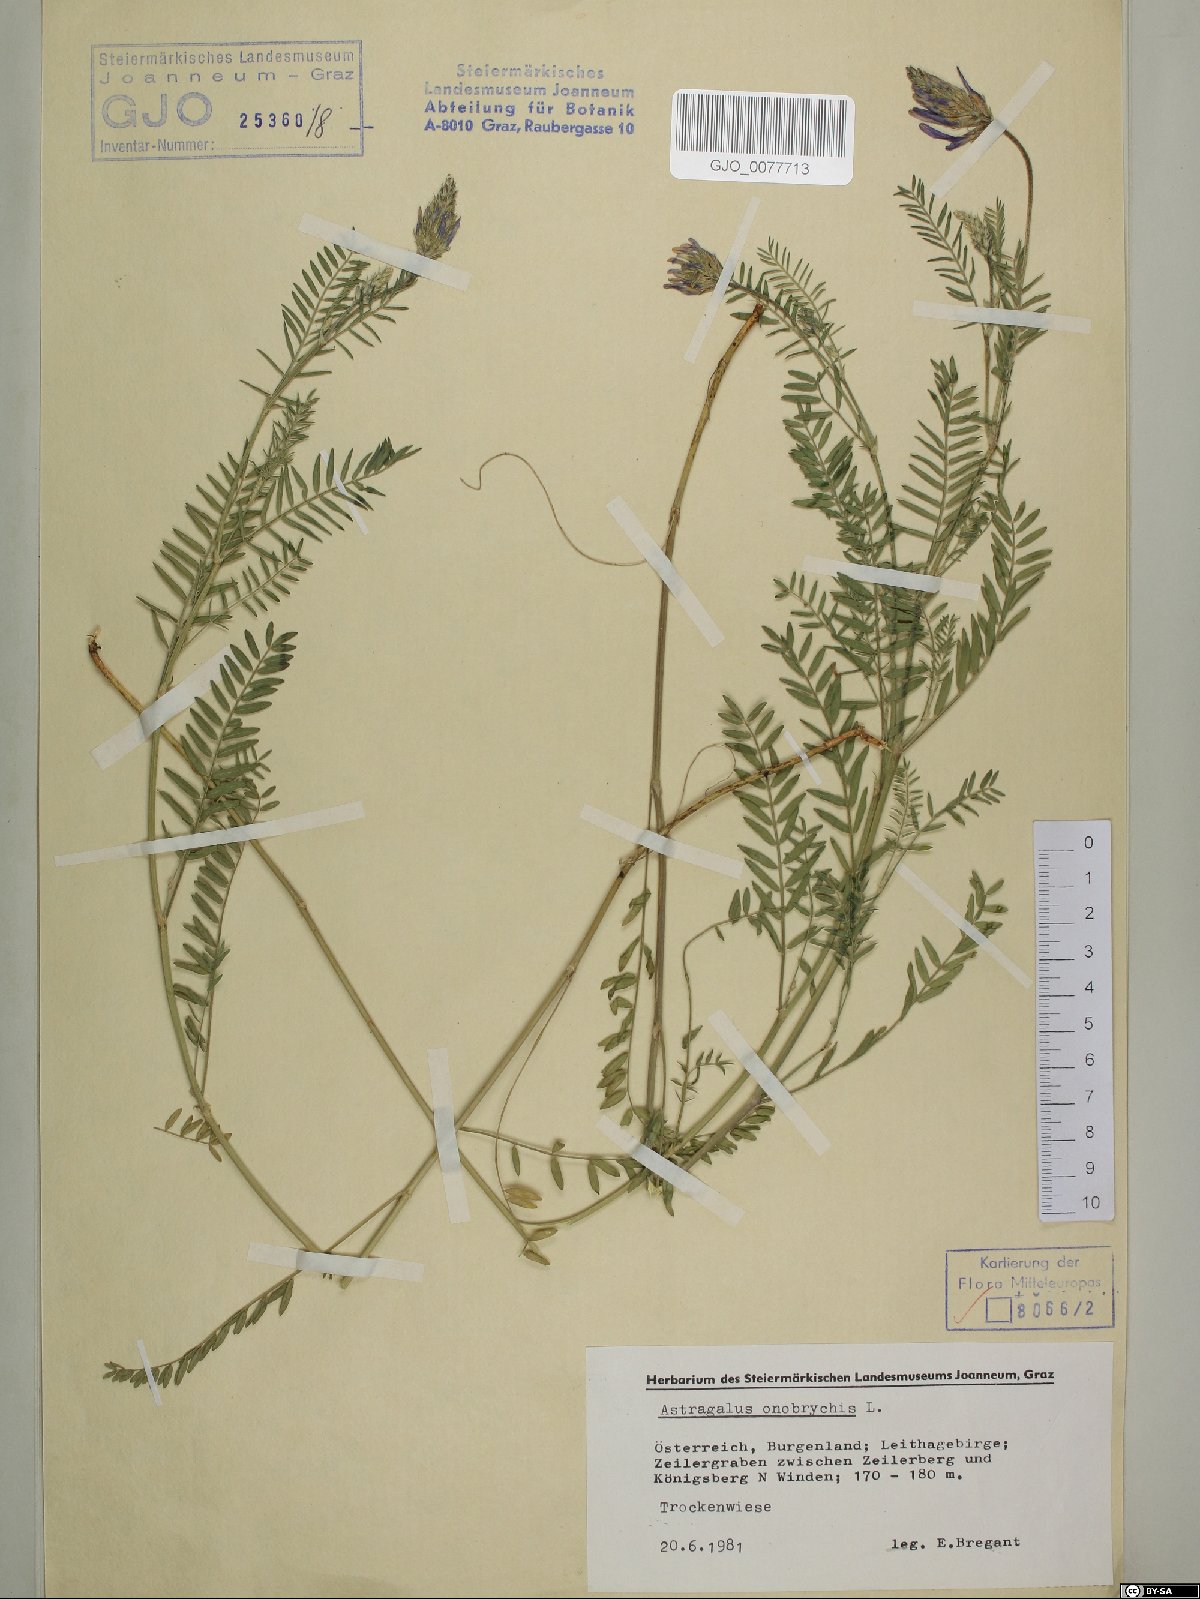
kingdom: Plantae
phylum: Tracheophyta
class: Magnoliopsida
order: Fabales
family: Fabaceae
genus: Astragalus
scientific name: Astragalus onobrychis
